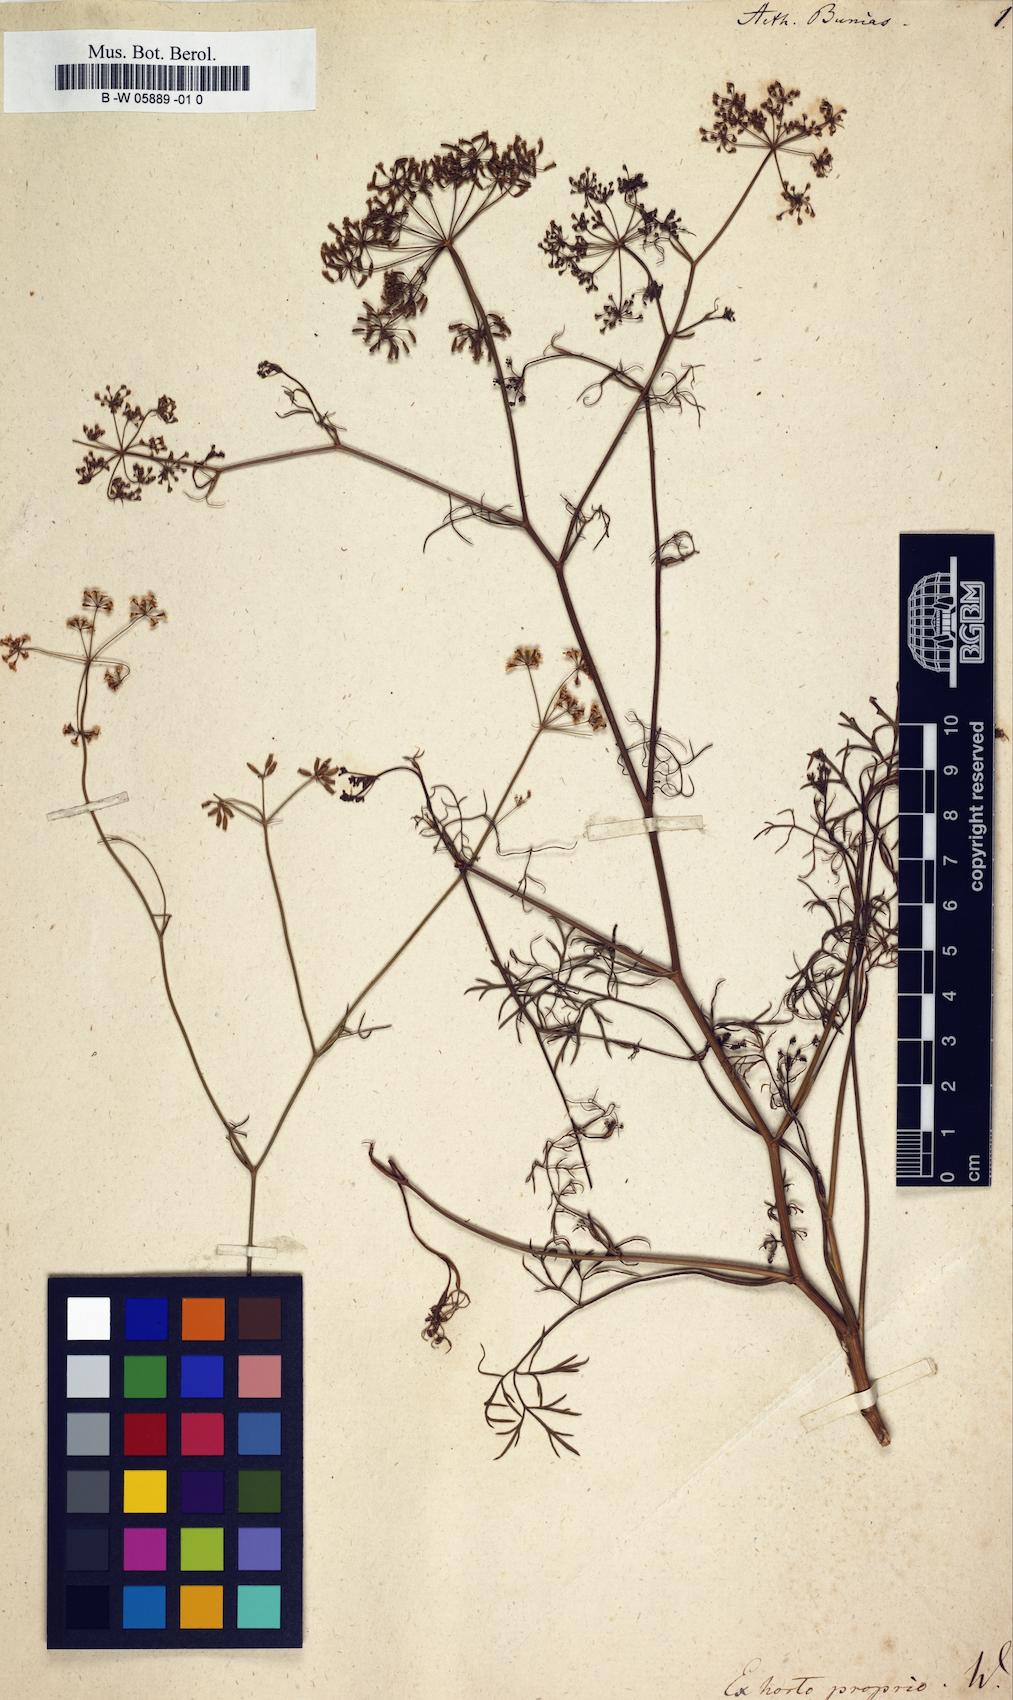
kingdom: Plantae
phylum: Tracheophyta
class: Magnoliopsida
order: Apiales
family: Apiaceae
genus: Ptychotis
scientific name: Ptychotis saxifraga
